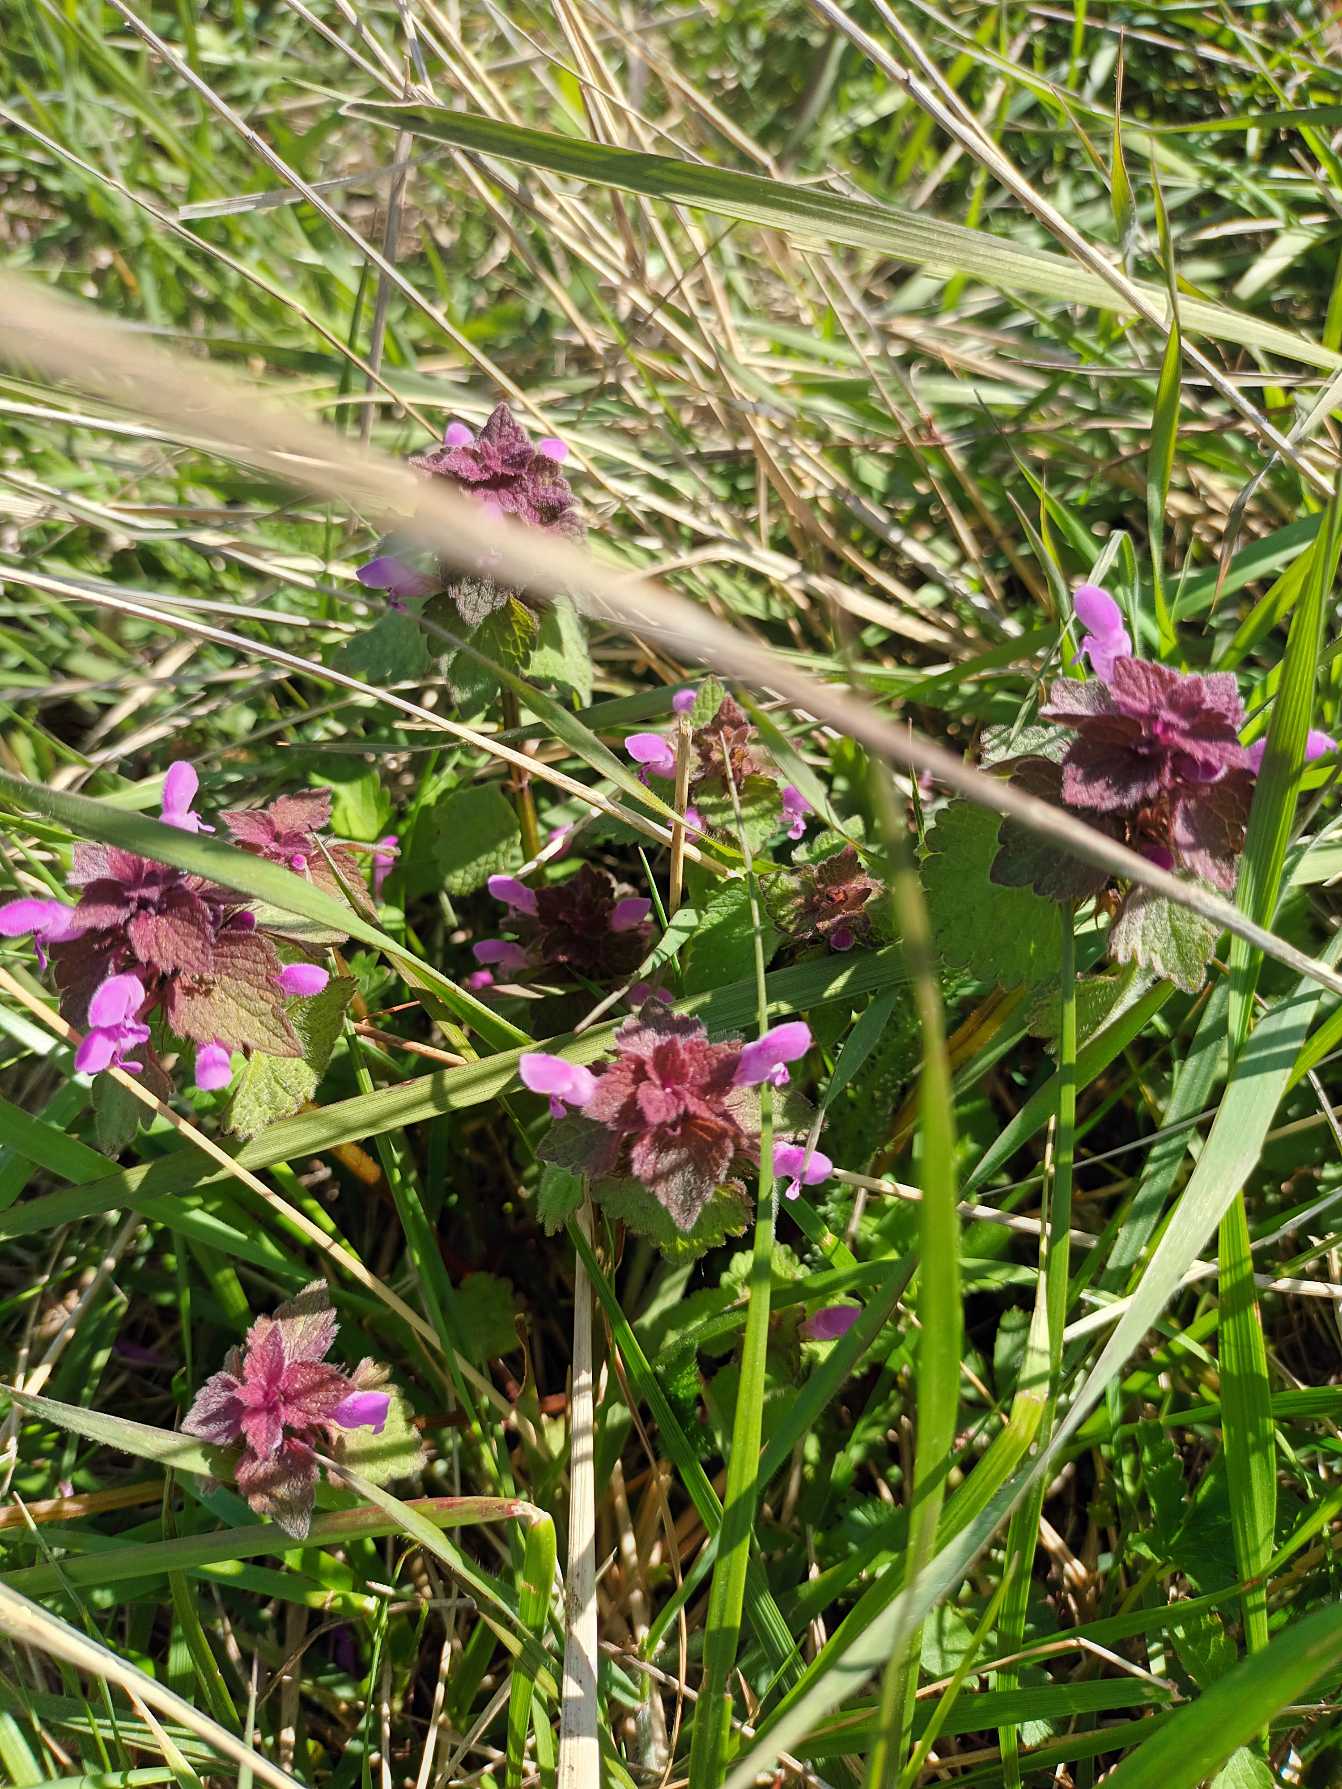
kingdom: Plantae
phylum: Tracheophyta
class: Magnoliopsida
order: Lamiales
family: Lamiaceae
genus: Lamium
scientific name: Lamium purpureum
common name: Rød tvetand
